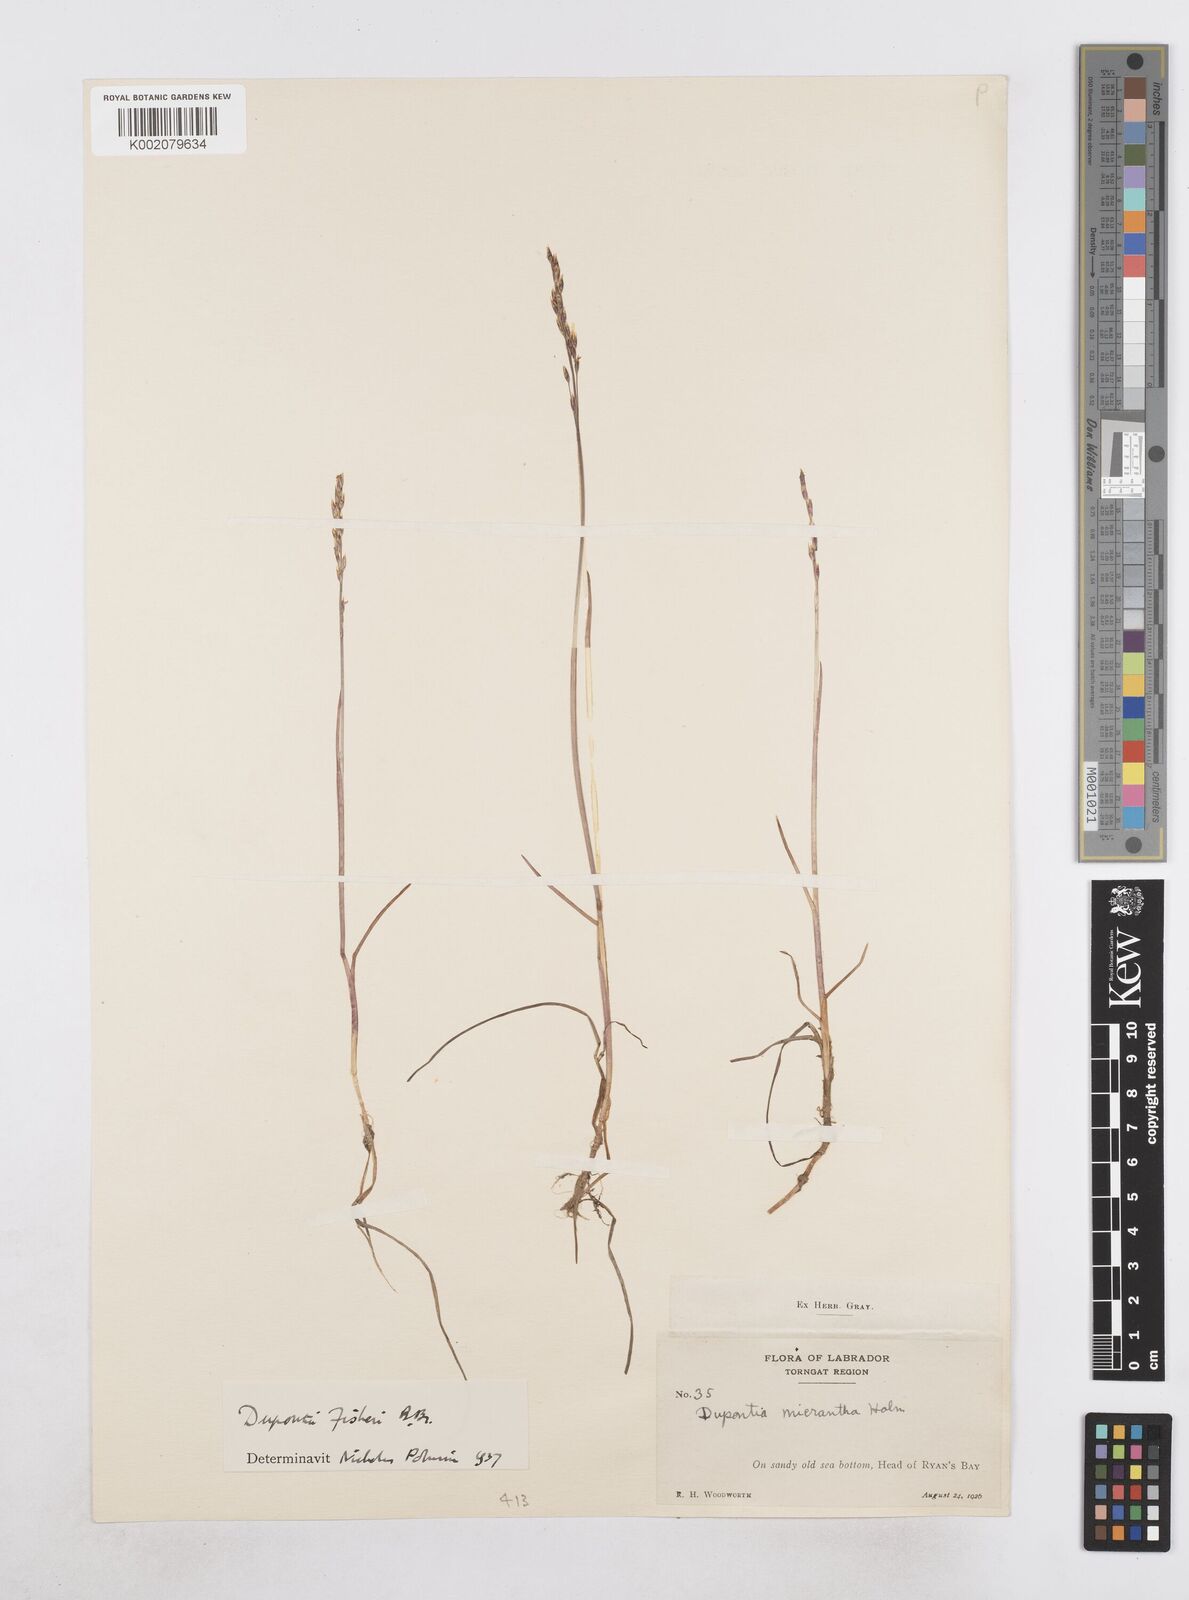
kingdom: Plantae
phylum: Tracheophyta
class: Liliopsida
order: Poales
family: Poaceae
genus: Dupontia
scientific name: Dupontia fisheri
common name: Tundra grass
